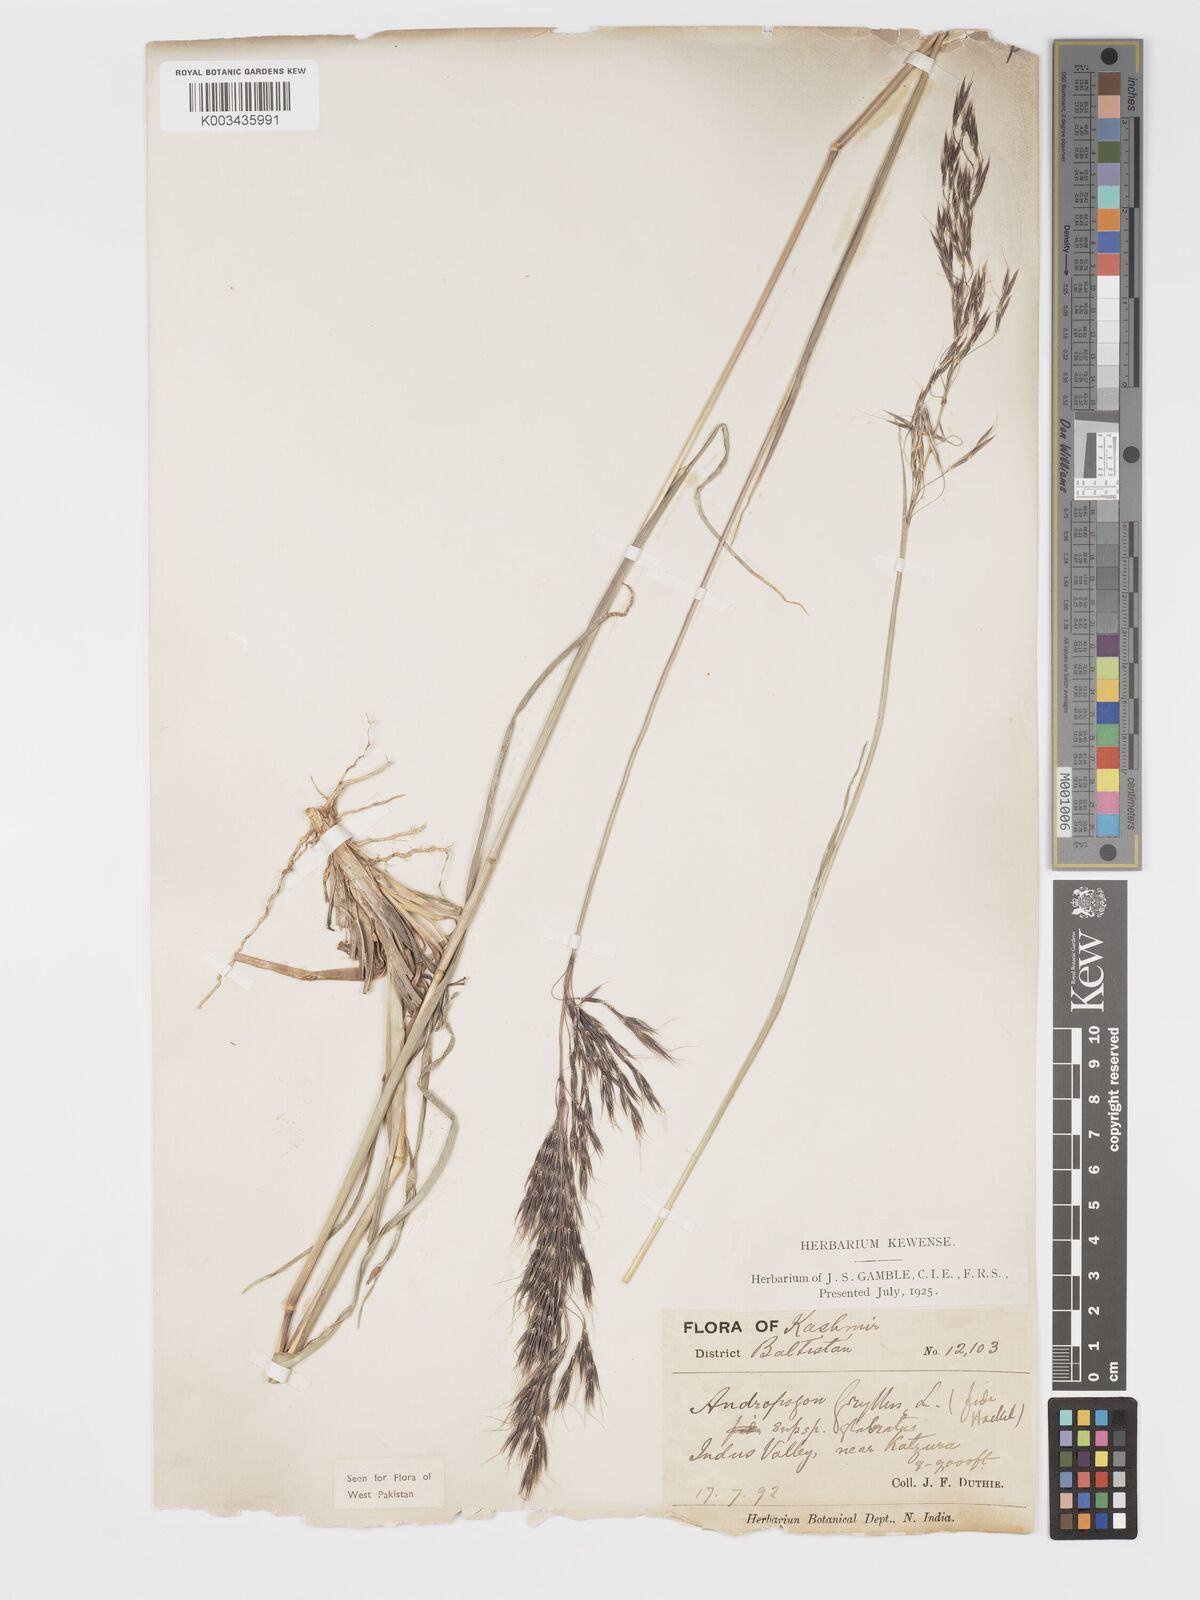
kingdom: Plantae
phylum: Tracheophyta
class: Liliopsida
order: Poales
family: Poaceae
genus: Chrysopogon
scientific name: Chrysopogon gryllus
